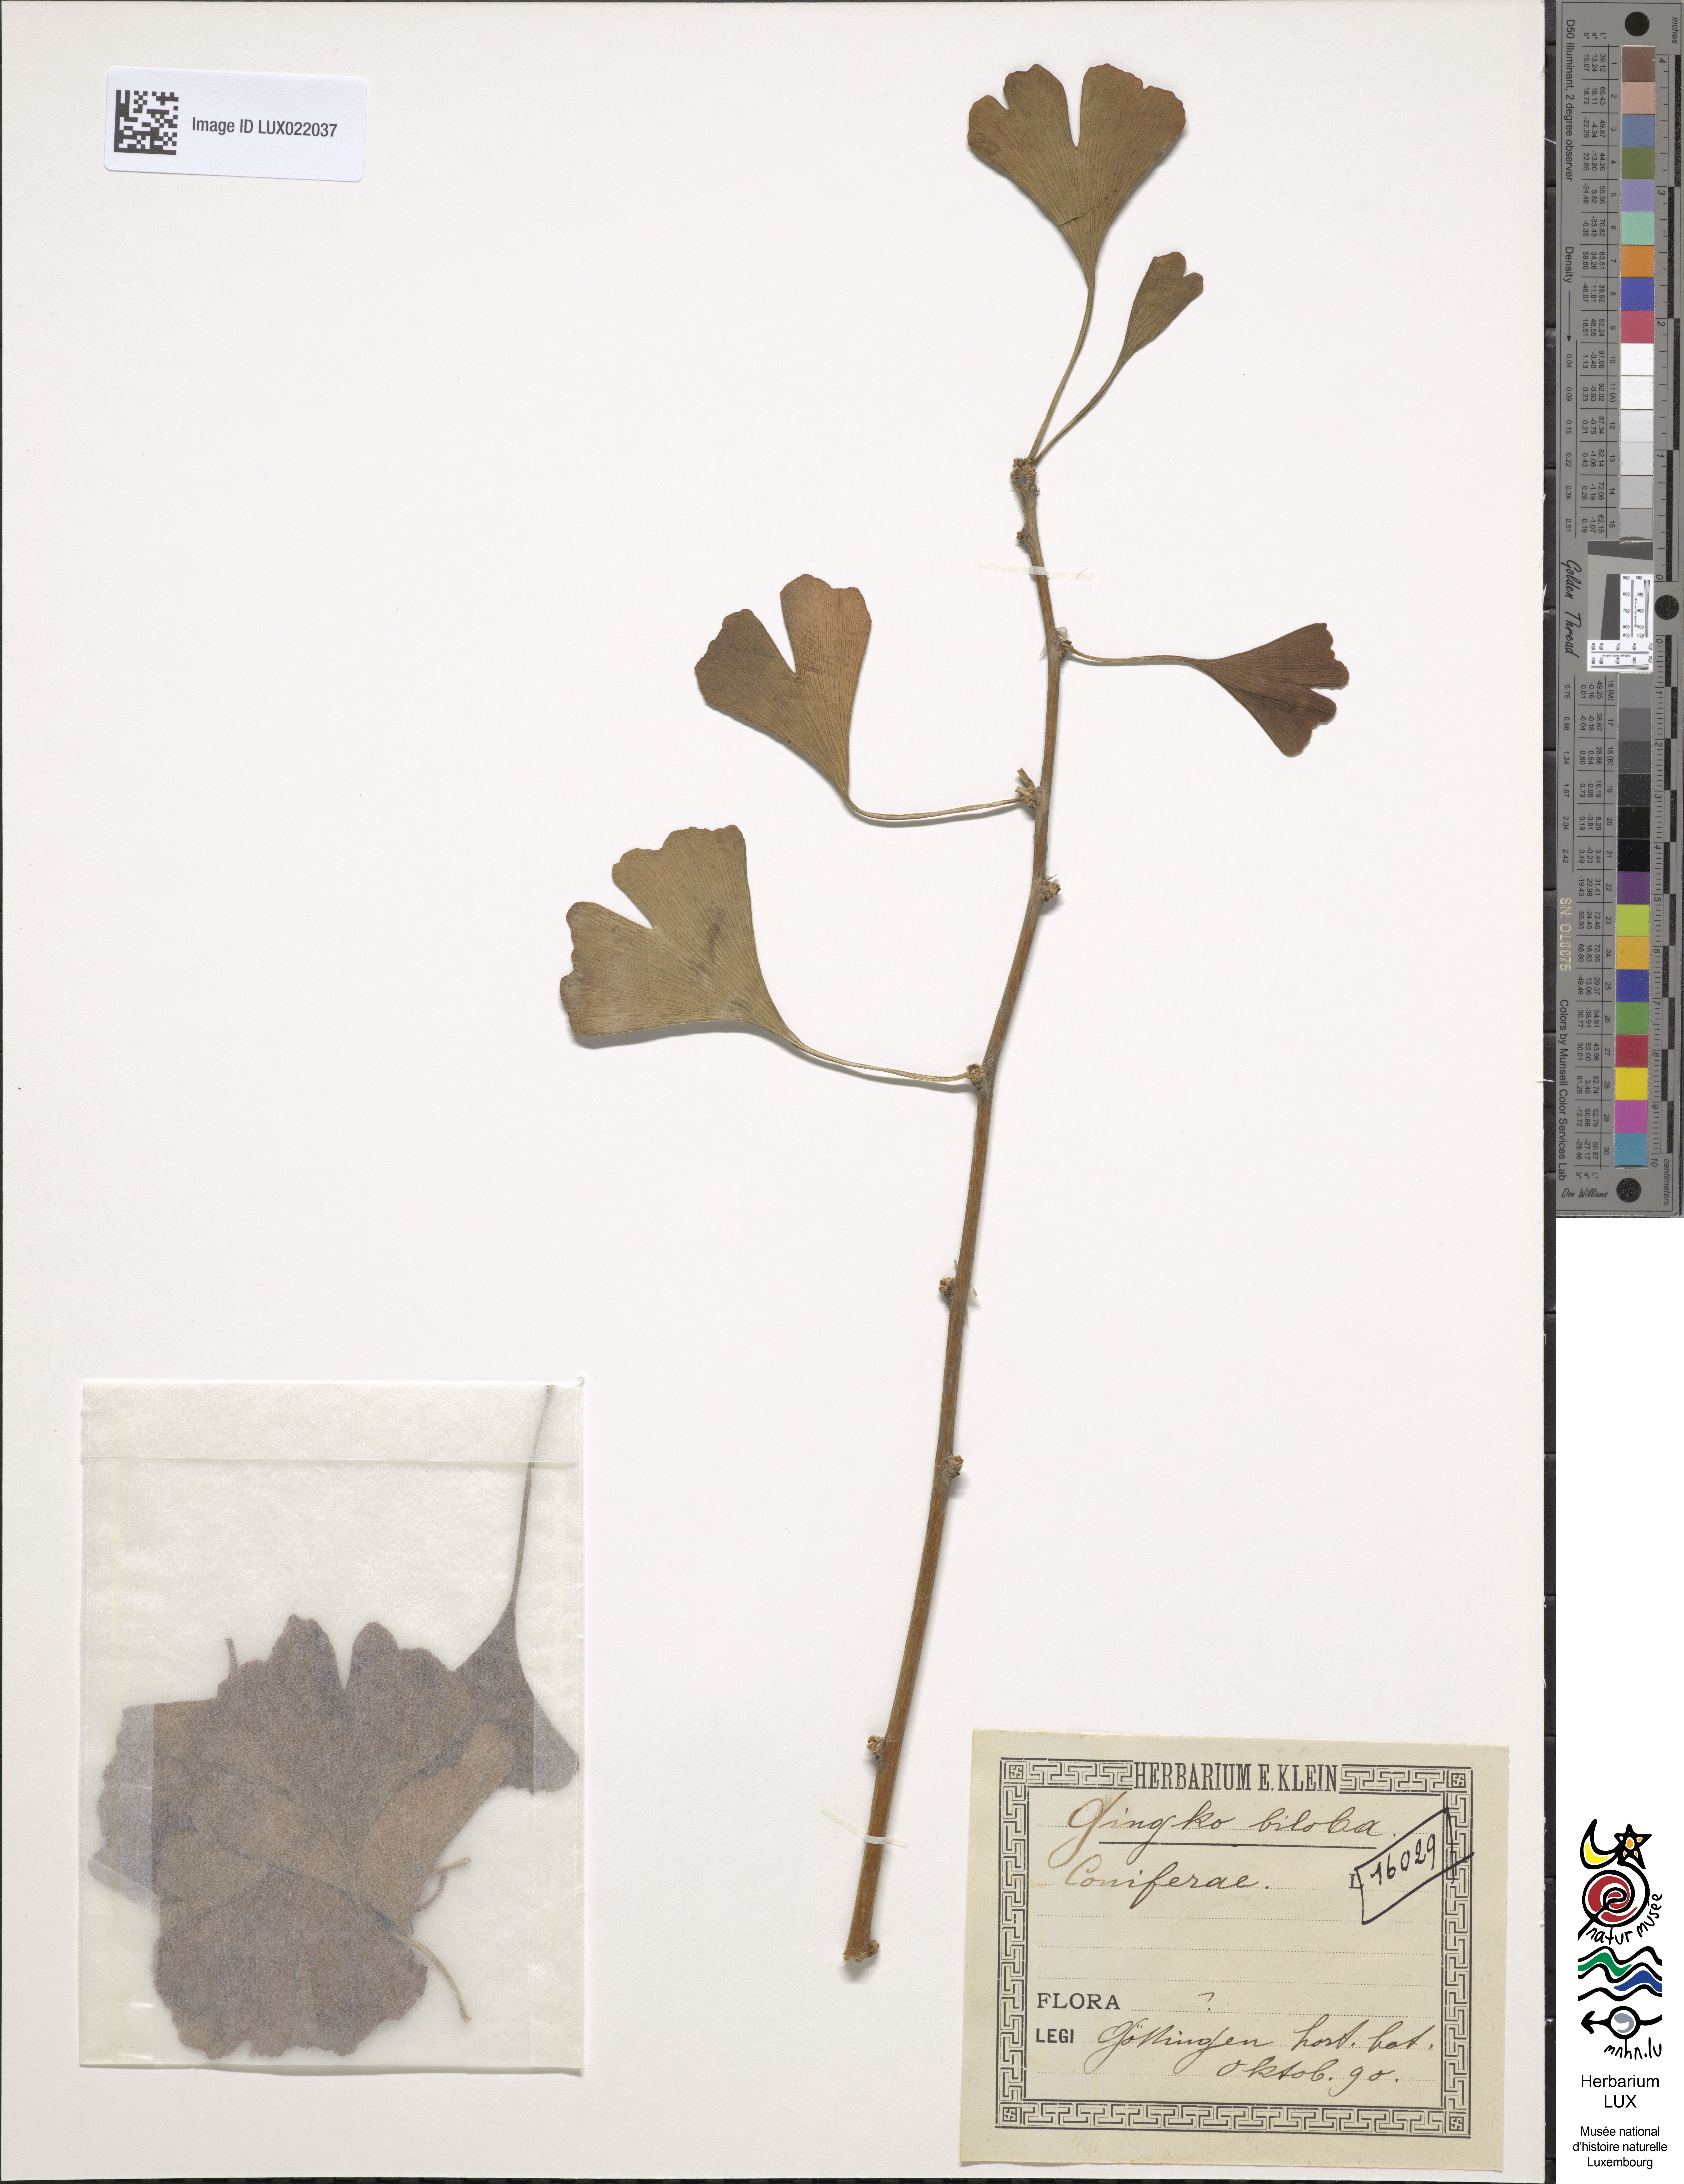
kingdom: Plantae
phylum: Tracheophyta
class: Ginkgoopsida
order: Ginkgoales
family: Ginkgoaceae
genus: Ginkgo
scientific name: Ginkgo biloba
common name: Ginkgo
